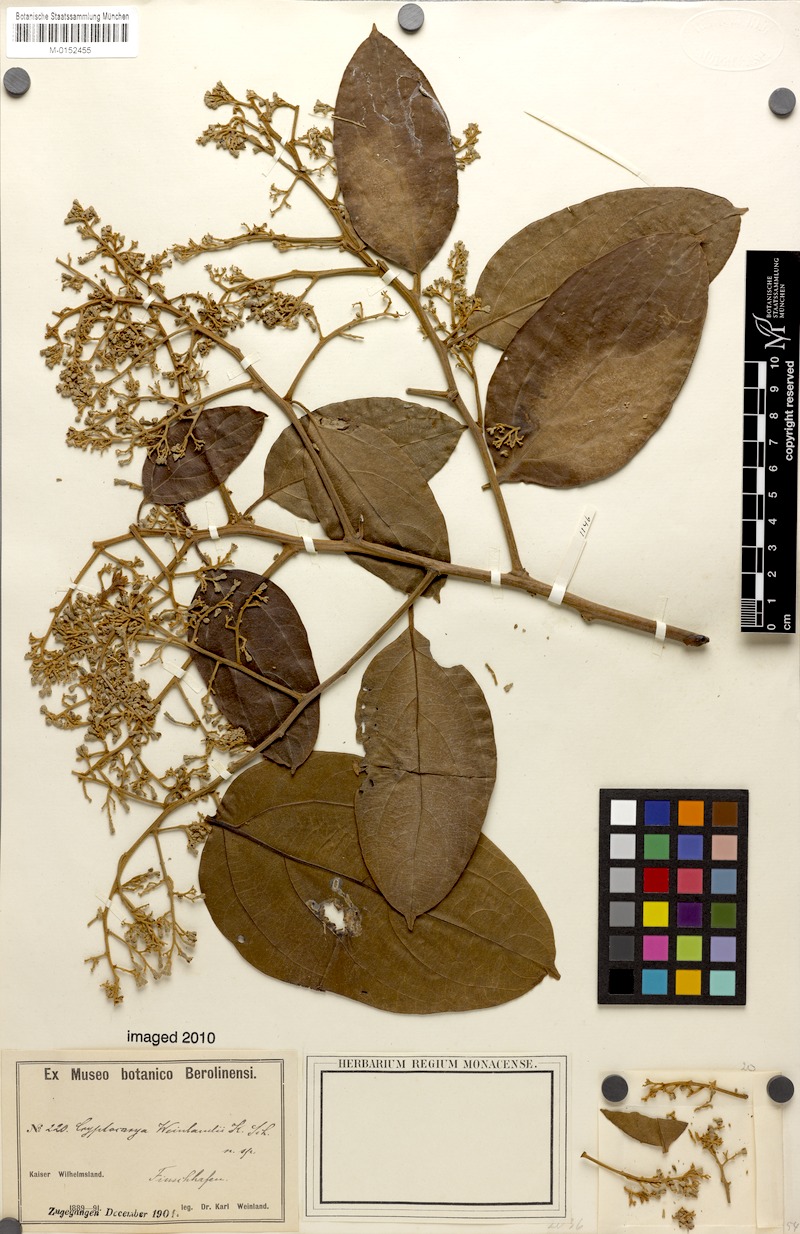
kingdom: Plantae
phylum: Tracheophyta
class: Magnoliopsida
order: Laurales
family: Lauraceae
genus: Cryptocarya
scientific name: Cryptocarya weinlandii
